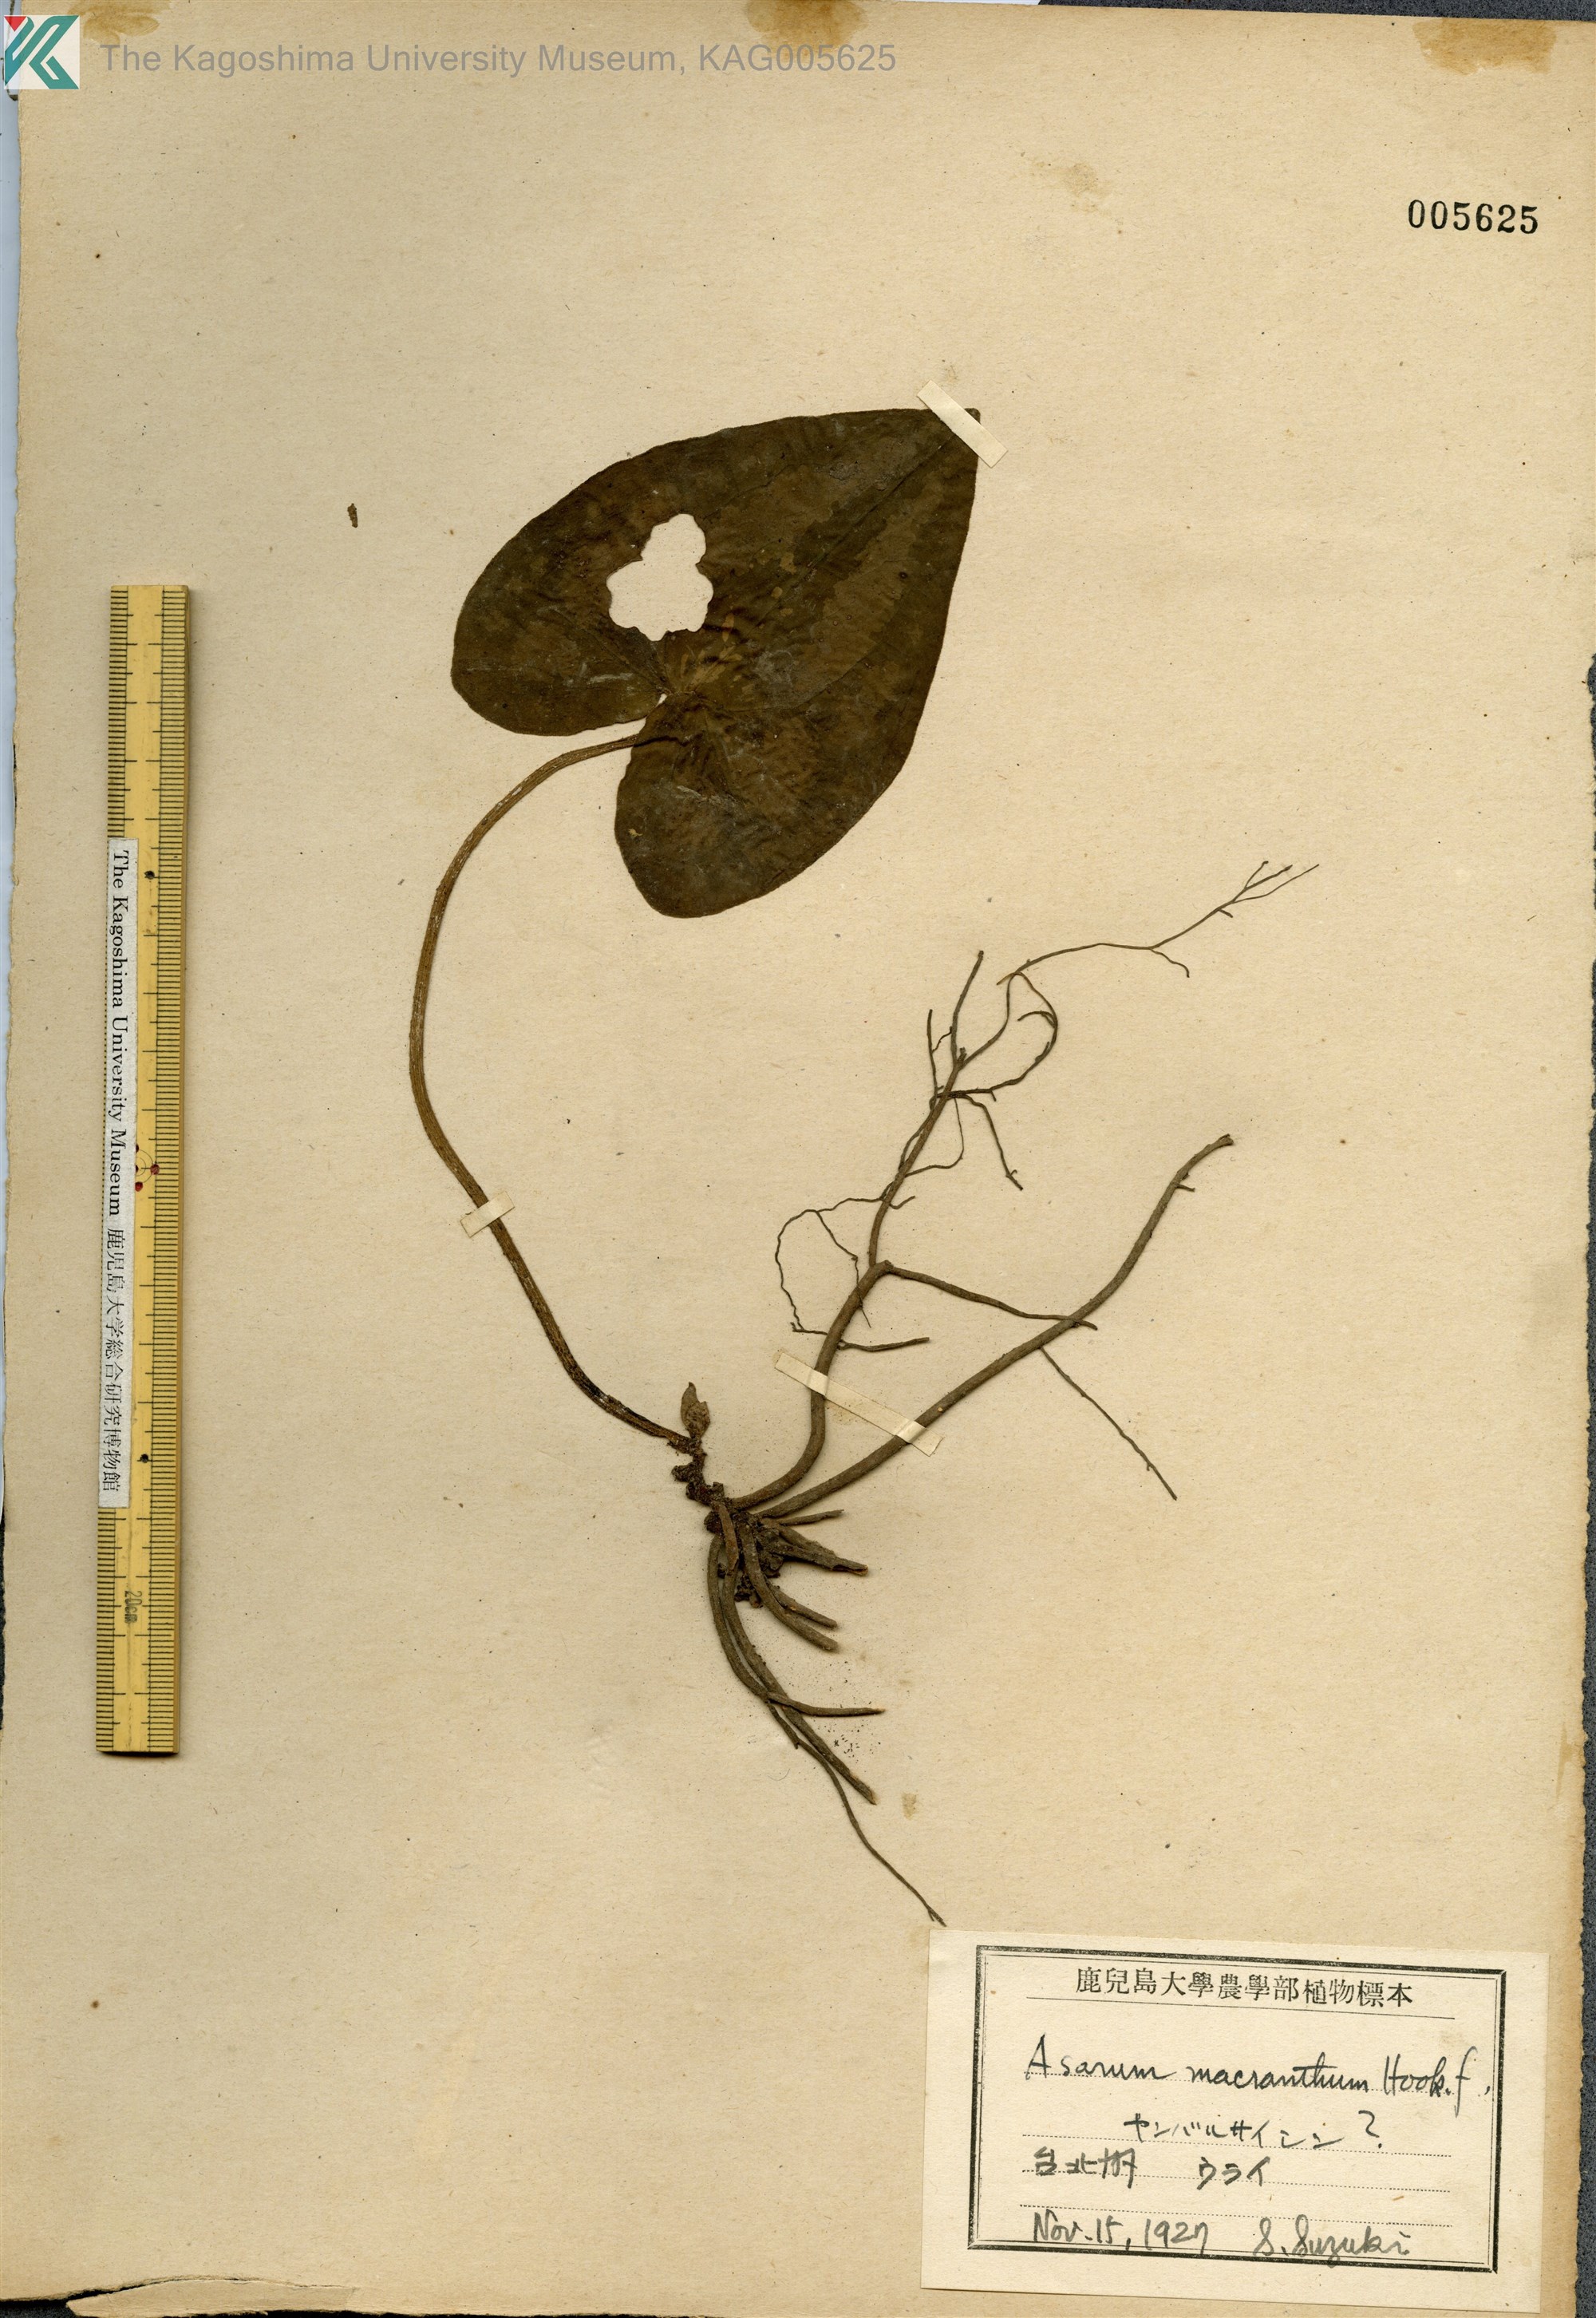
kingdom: Plantae
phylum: Tracheophyta
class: Magnoliopsida
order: Piperales
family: Aristolochiaceae
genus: Asarum
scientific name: Asarum macranthum
